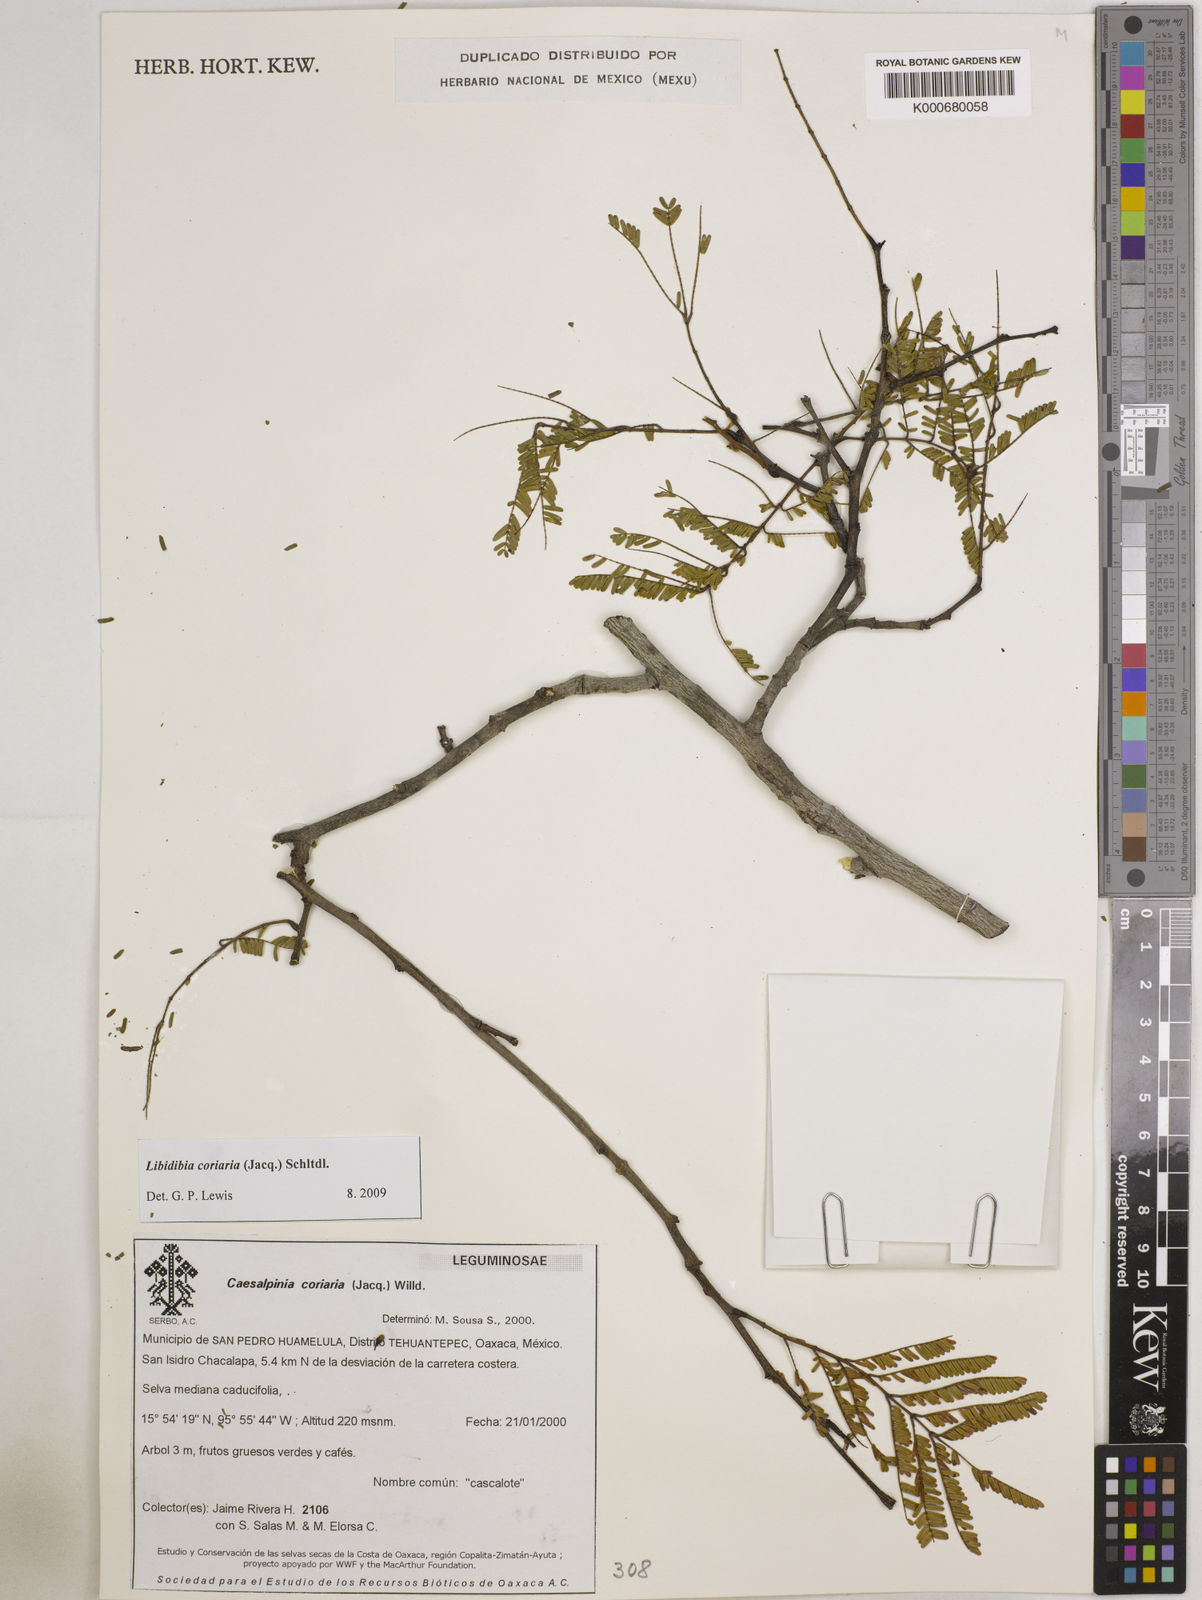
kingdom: Plantae
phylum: Tracheophyta
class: Magnoliopsida
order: Fabales
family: Fabaceae
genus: Libidibia
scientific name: Libidibia coriaria
